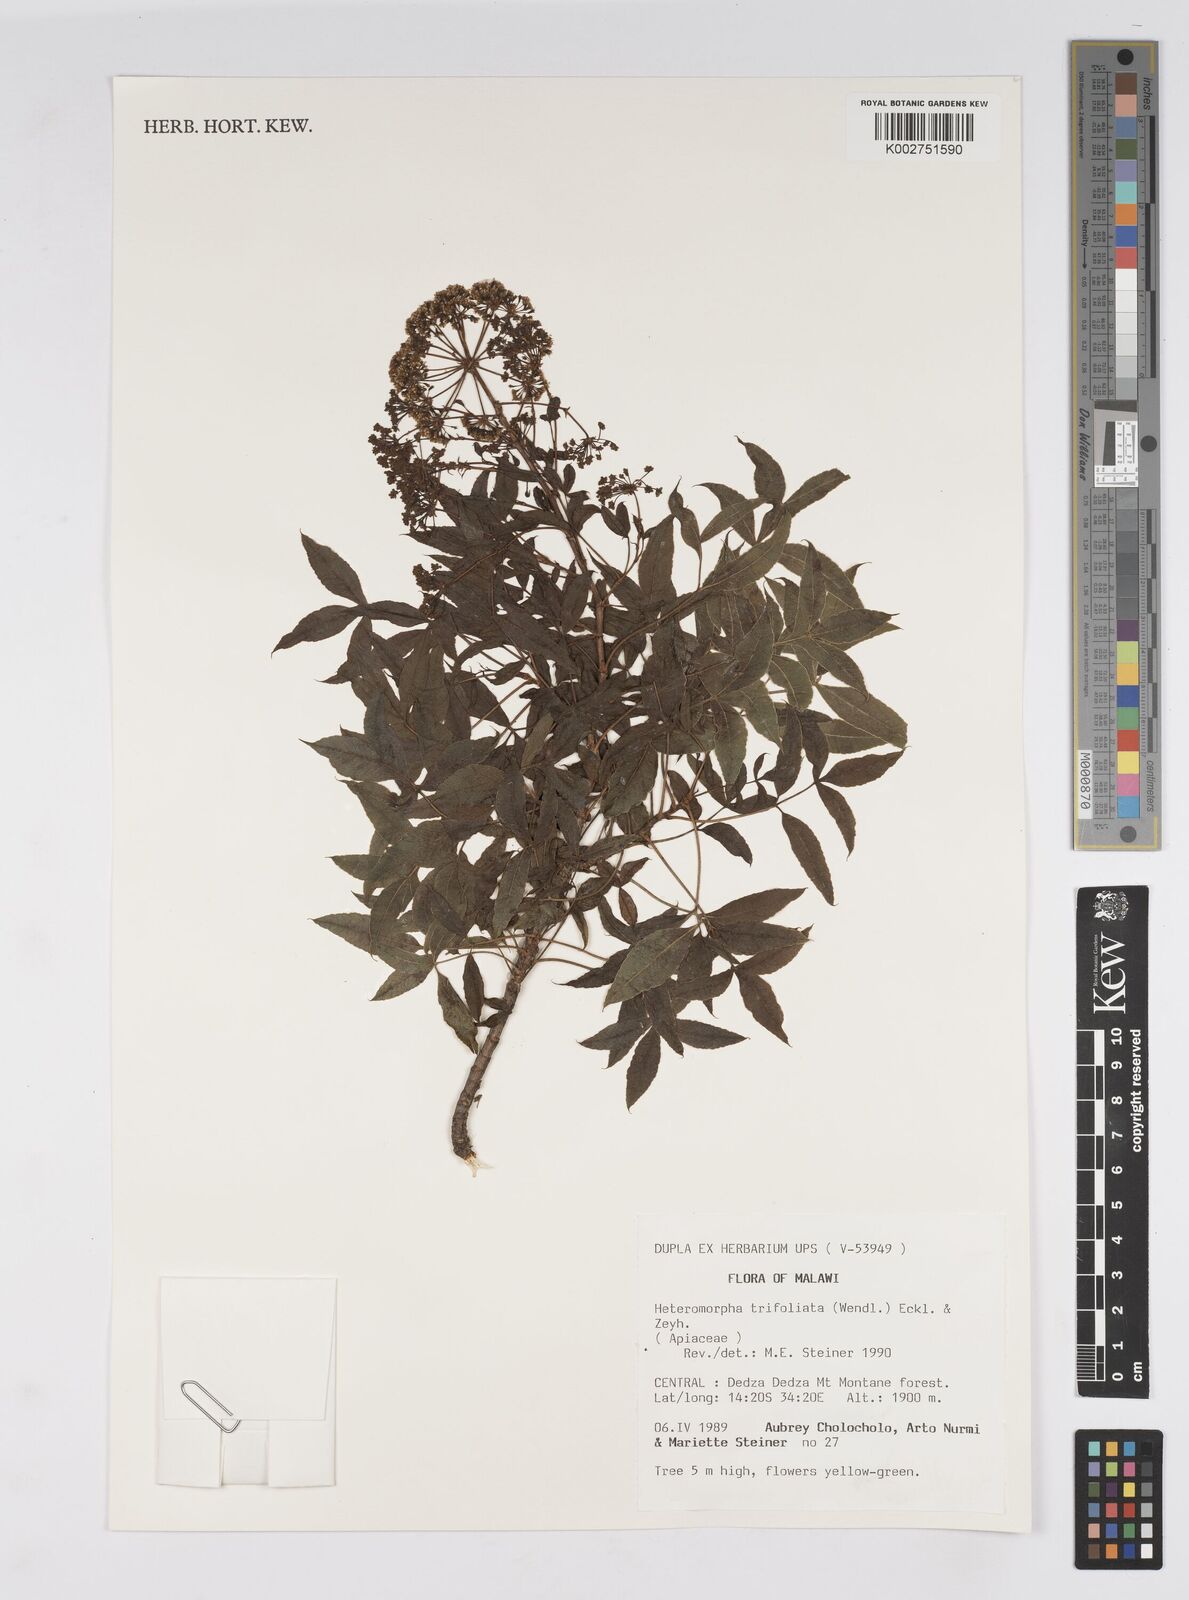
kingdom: Plantae
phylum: Tracheophyta
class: Magnoliopsida
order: Apiales
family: Apiaceae
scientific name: Apiaceae
